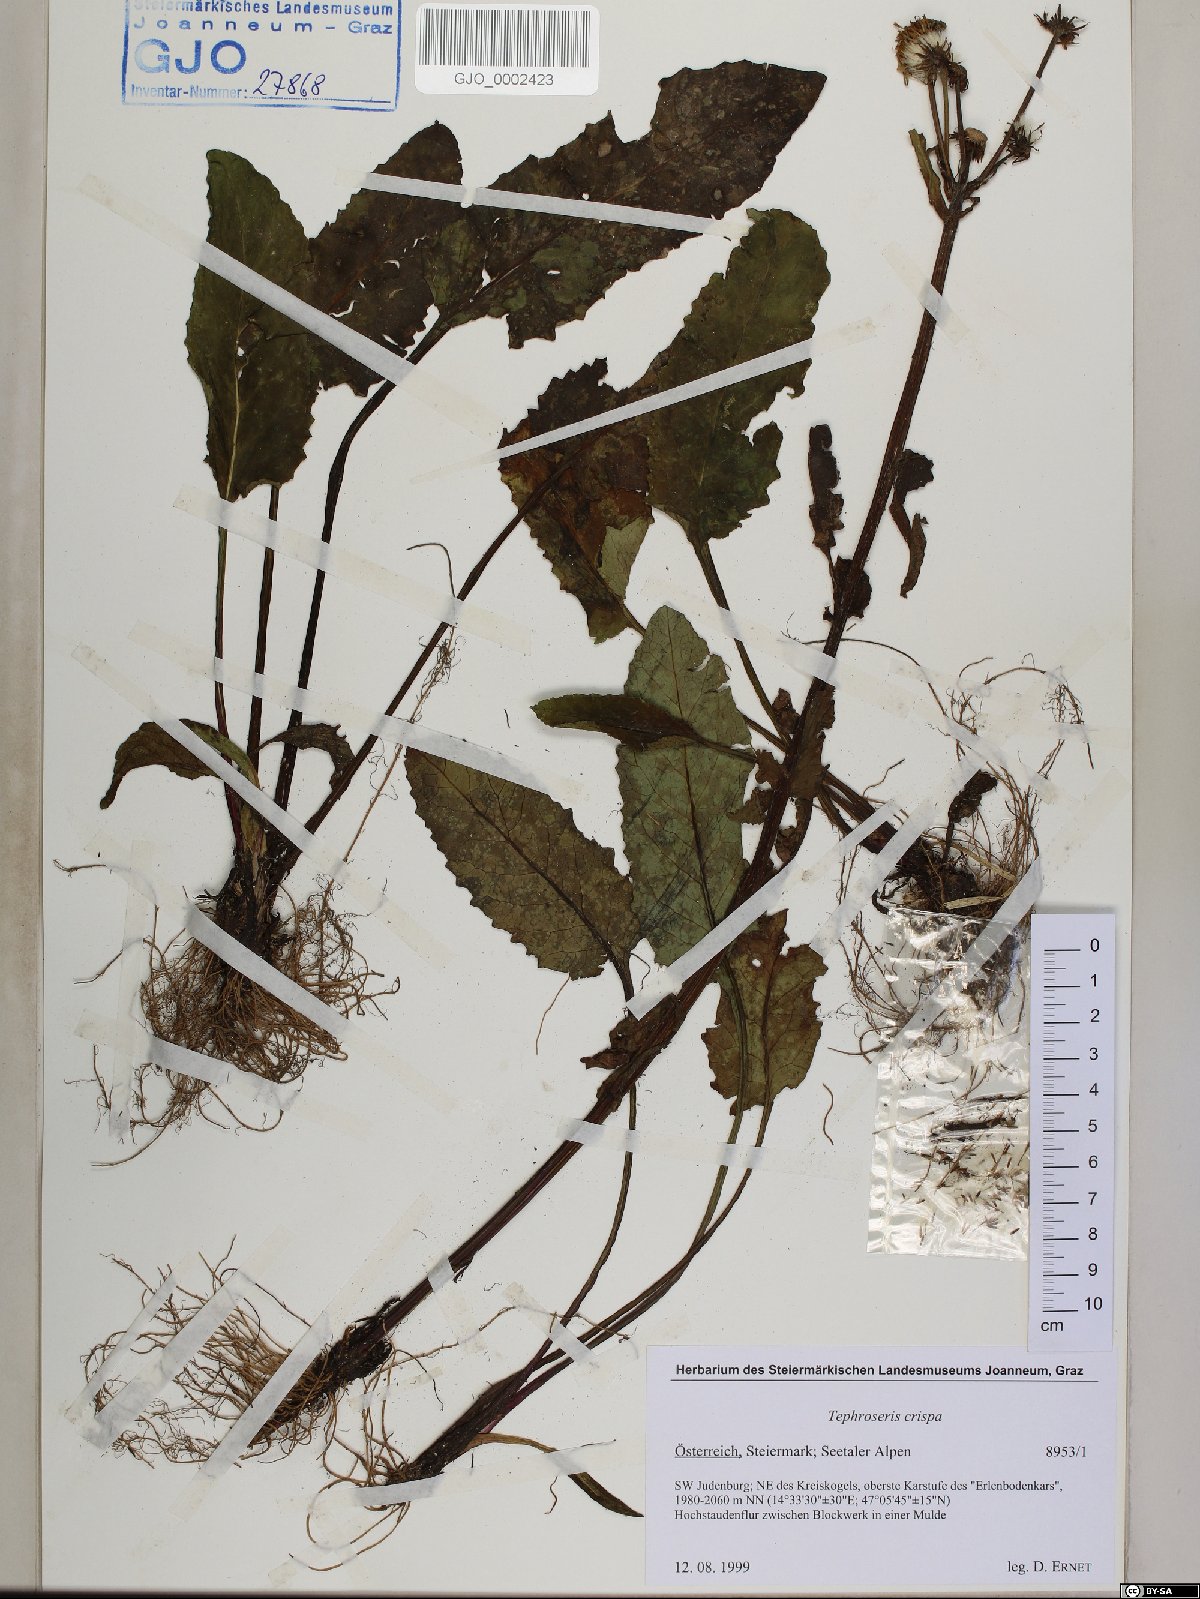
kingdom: Plantae
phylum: Tracheophyta
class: Magnoliopsida
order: Asterales
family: Asteraceae
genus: Tephroseris
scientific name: Tephroseris crispa
